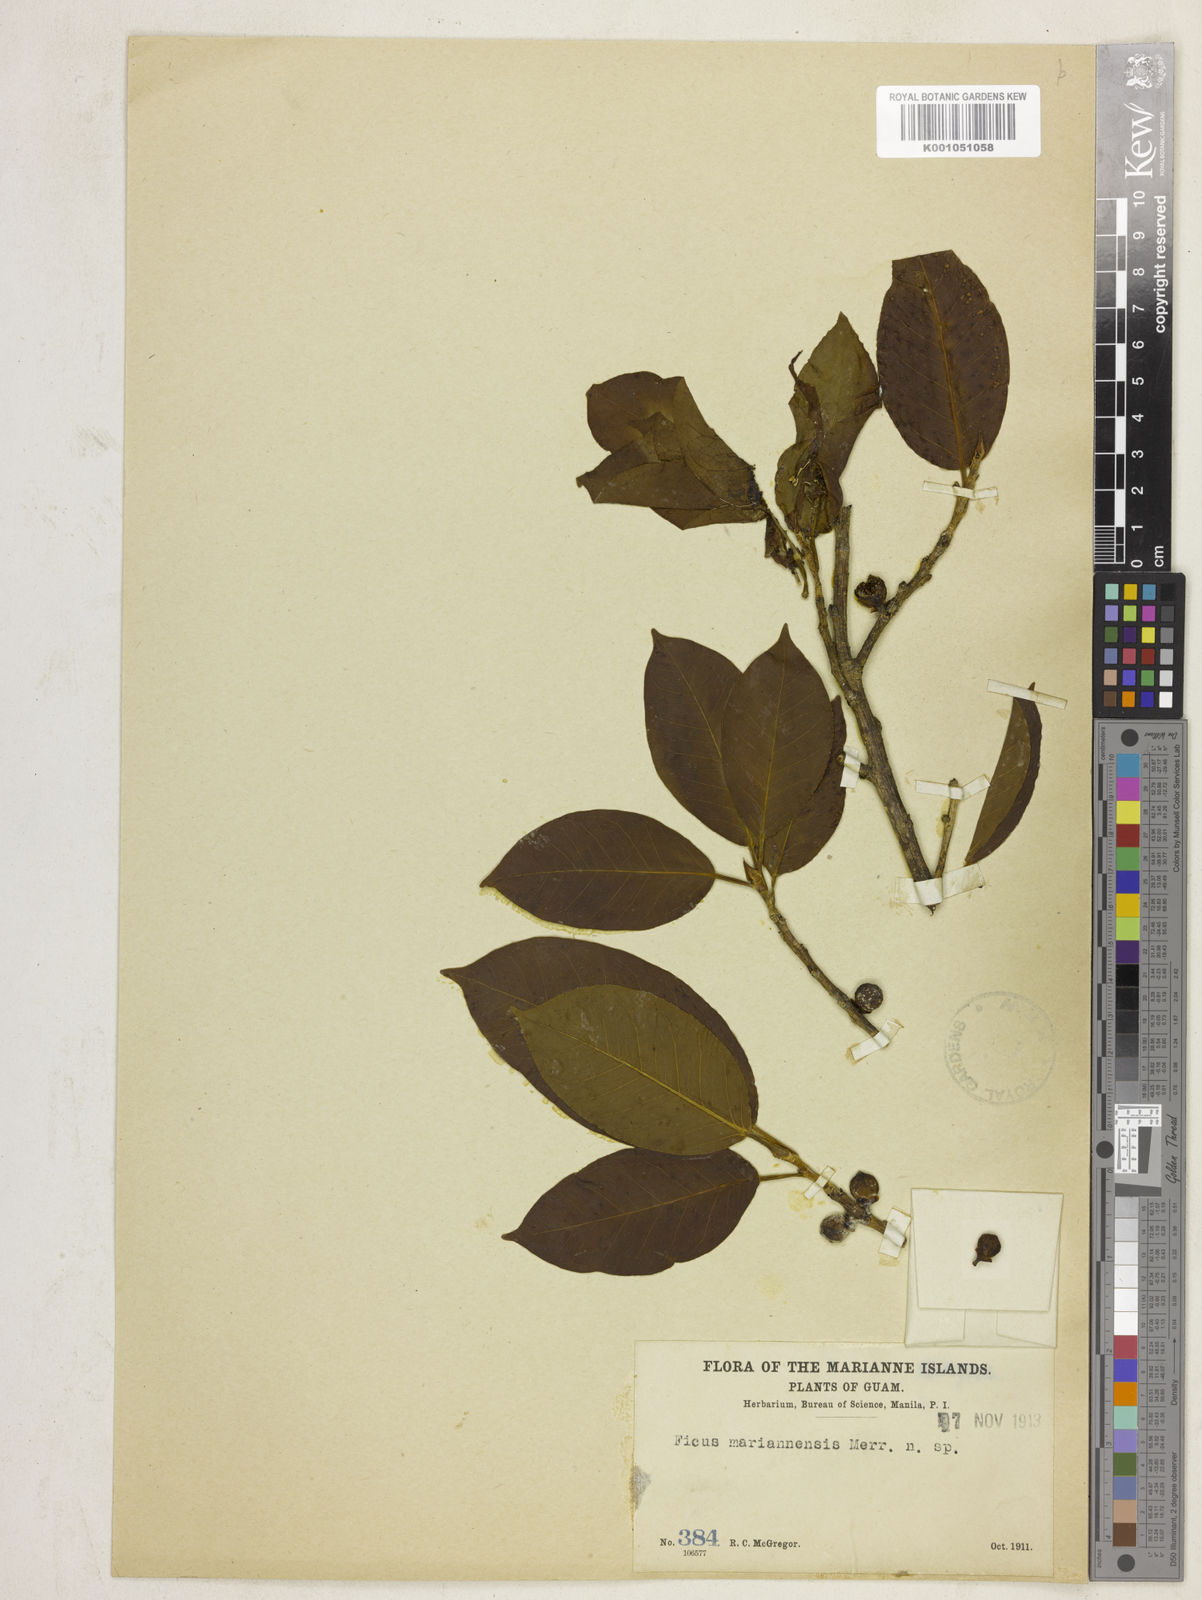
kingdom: Plantae
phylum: Tracheophyta
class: Magnoliopsida
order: Rosales
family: Moraceae
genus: Ficus
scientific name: Ficus prolixa
